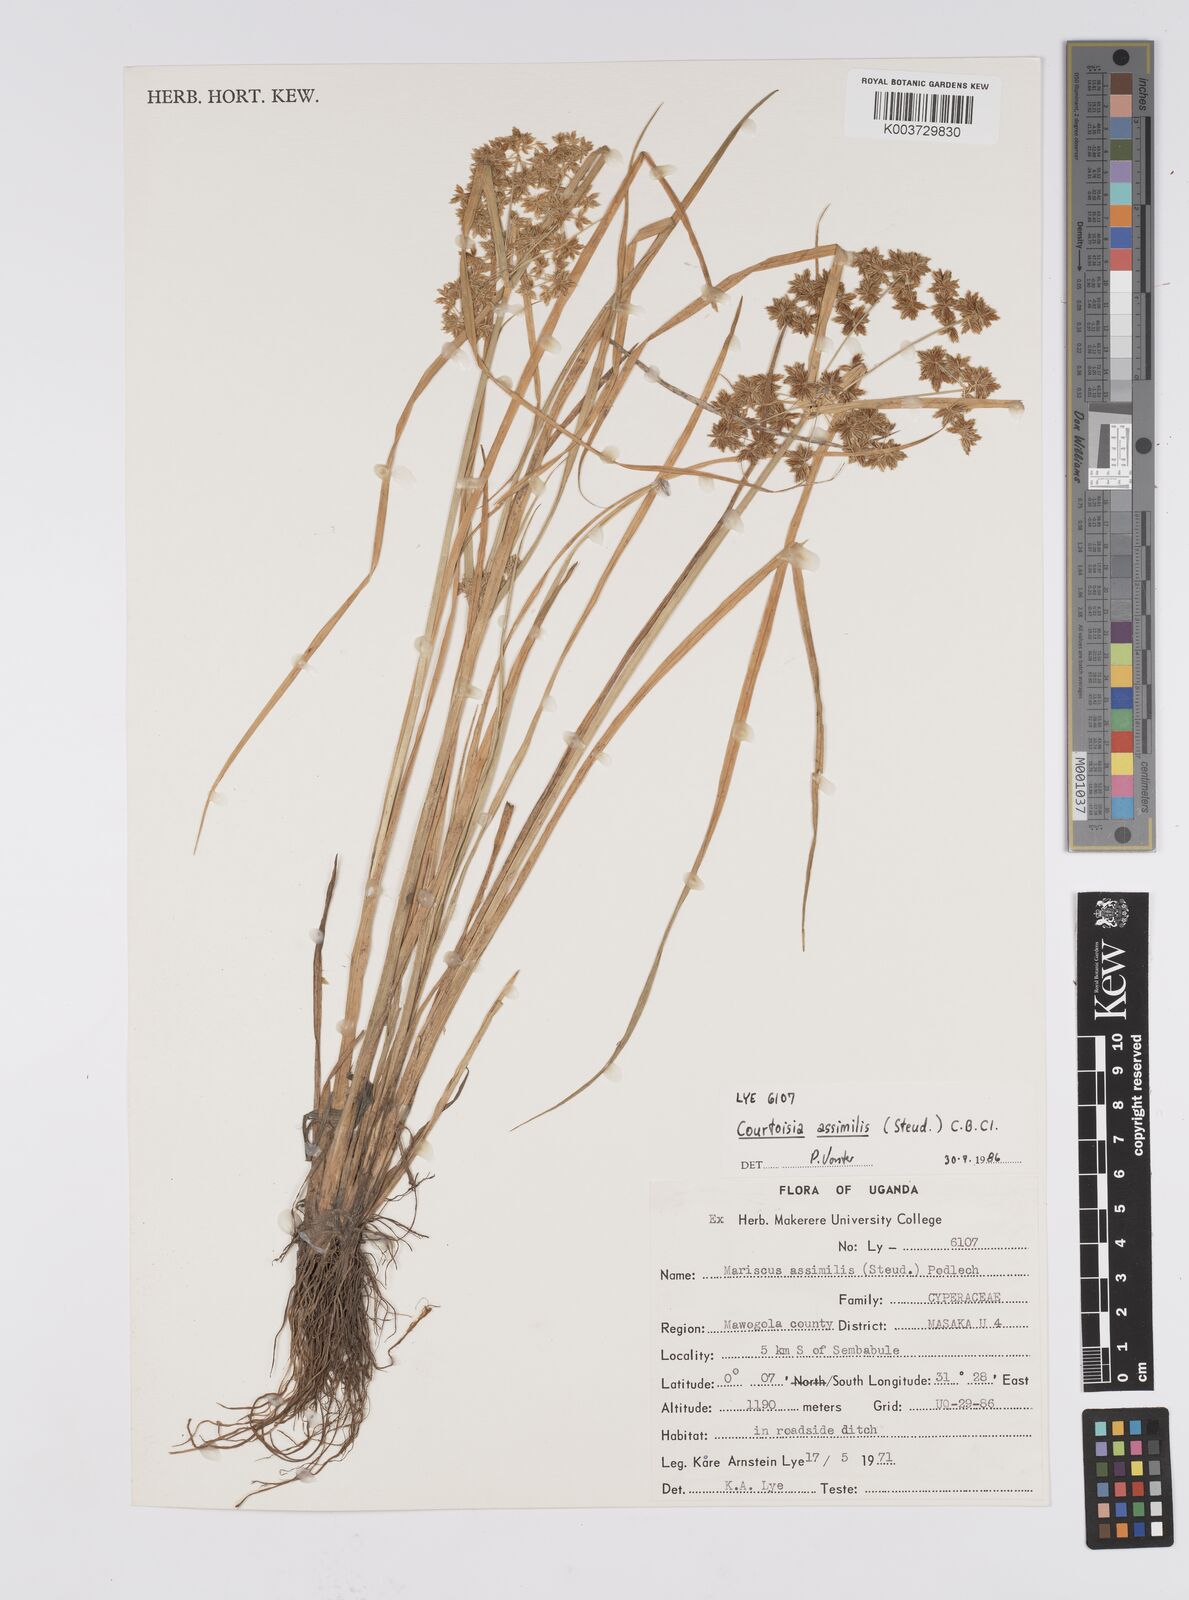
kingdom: Plantae
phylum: Tracheophyta
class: Liliopsida
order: Poales
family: Cyperaceae
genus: Cyperus
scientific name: Cyperus assimilis
